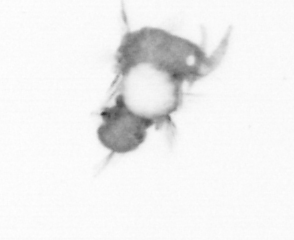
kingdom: Animalia
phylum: Annelida
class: Polychaeta
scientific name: Polychaeta
